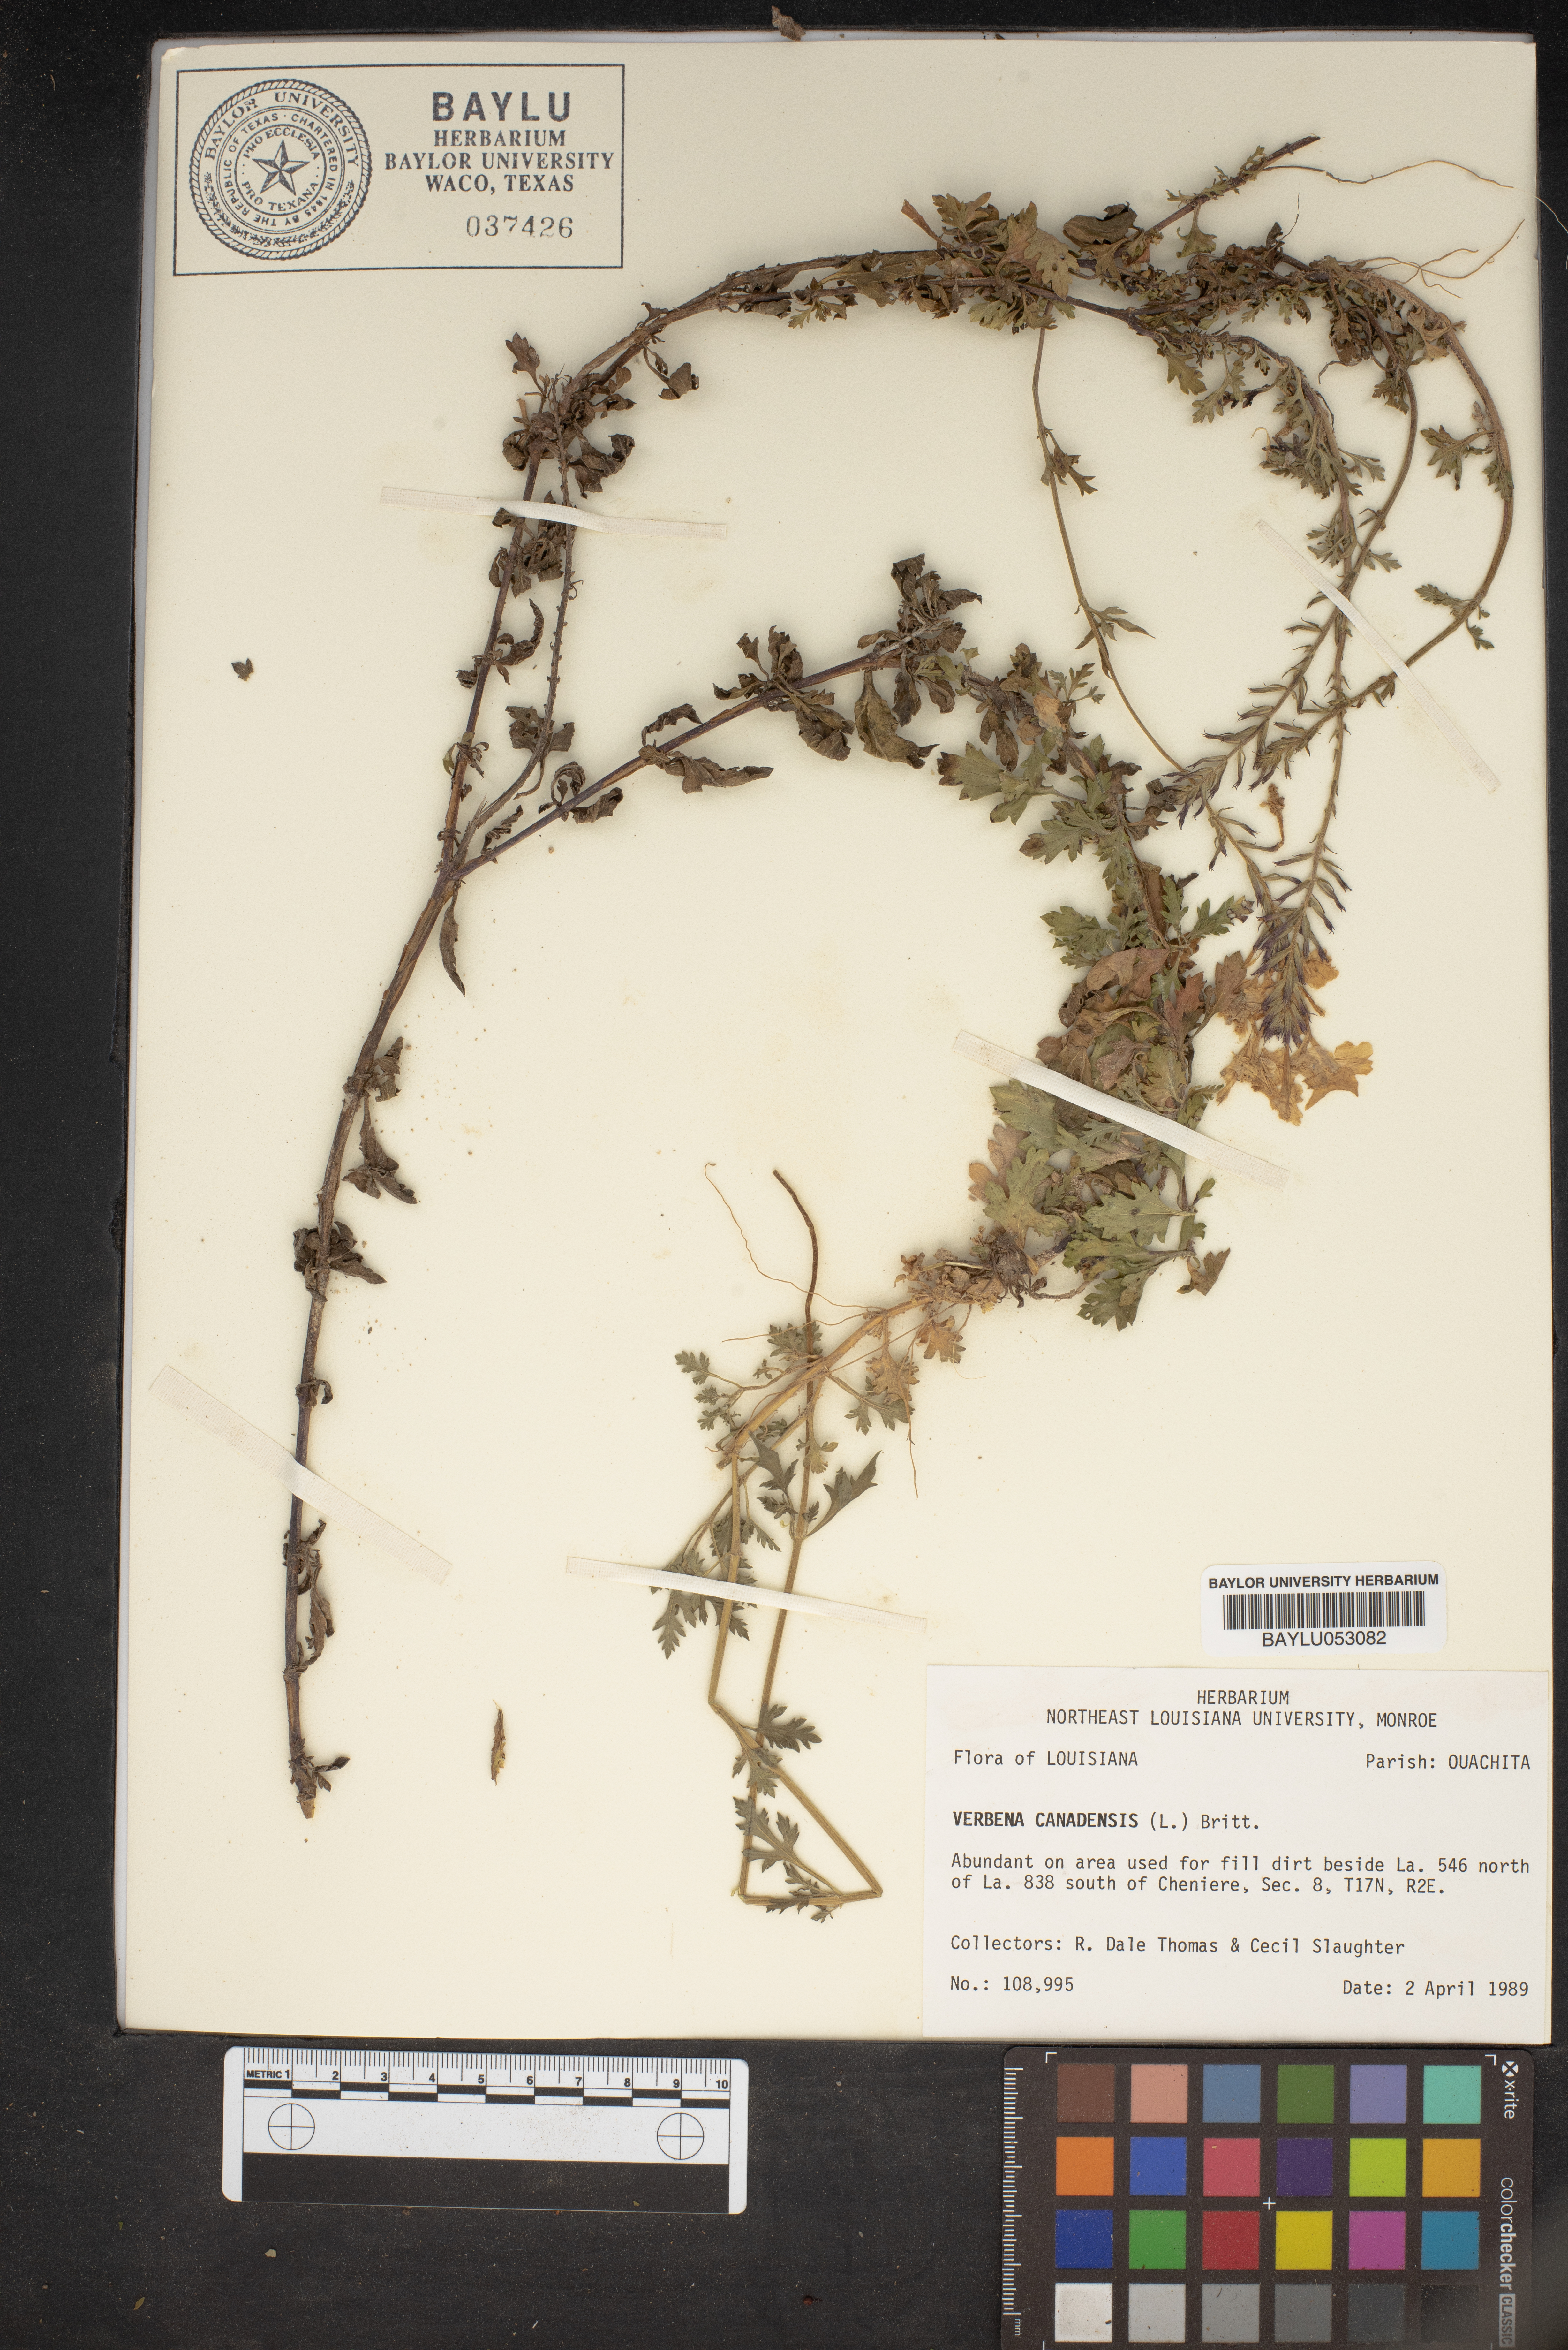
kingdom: Plantae
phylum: Tracheophyta
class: Magnoliopsida
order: Lamiales
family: Verbenaceae
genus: Verbena
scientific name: Verbena canadensis
